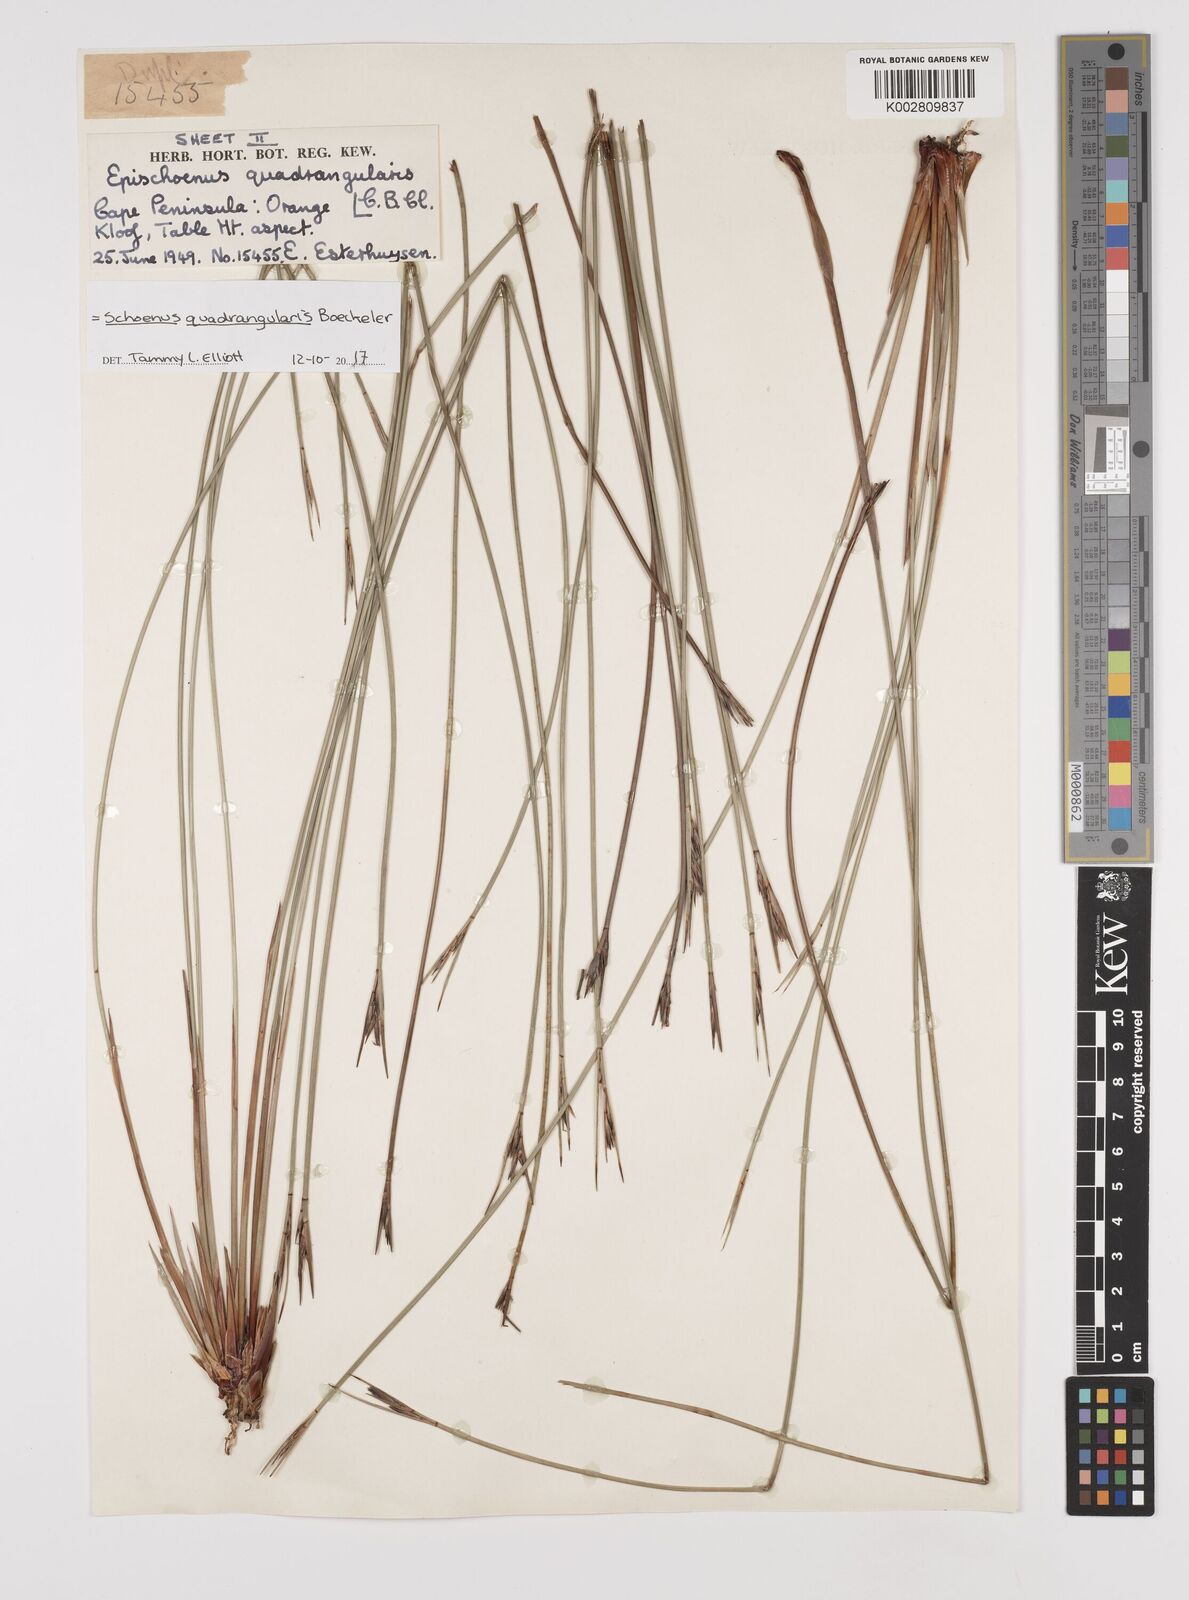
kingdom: Plantae
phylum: Tracheophyta
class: Liliopsida
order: Poales
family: Cyperaceae
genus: Schoenus
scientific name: Schoenus quadrangularis
